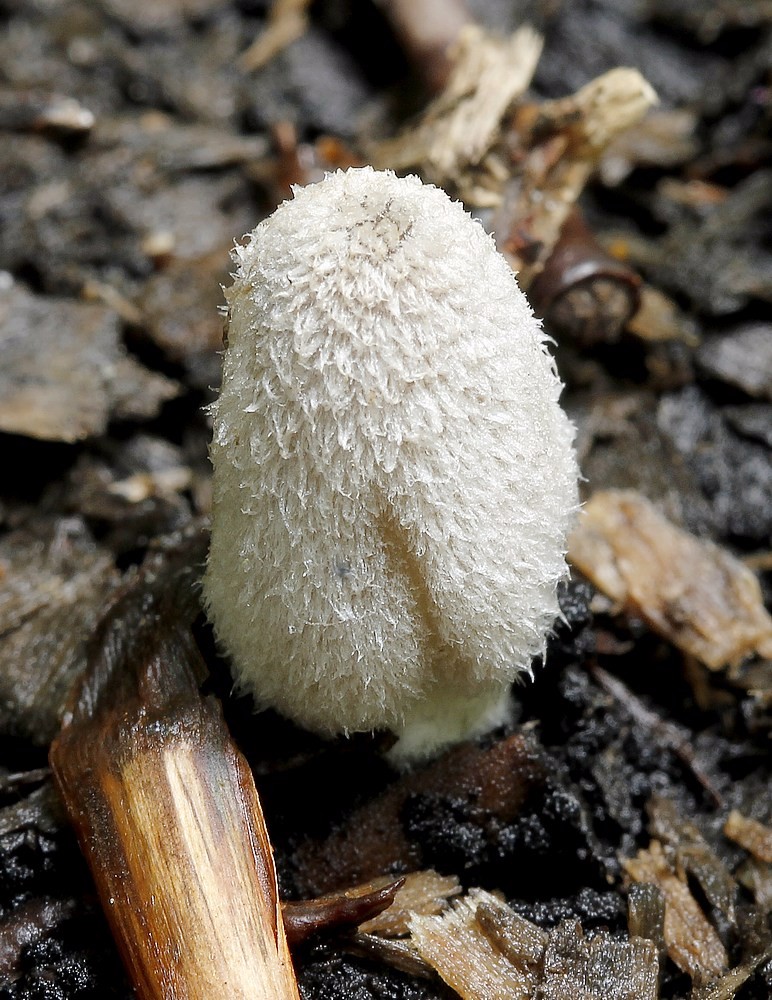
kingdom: Fungi
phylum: Basidiomycota
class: Agaricomycetes
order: Agaricales
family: Psathyrellaceae
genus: Coprinopsis
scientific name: Coprinopsis lagopus
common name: dunstokket blækhat
